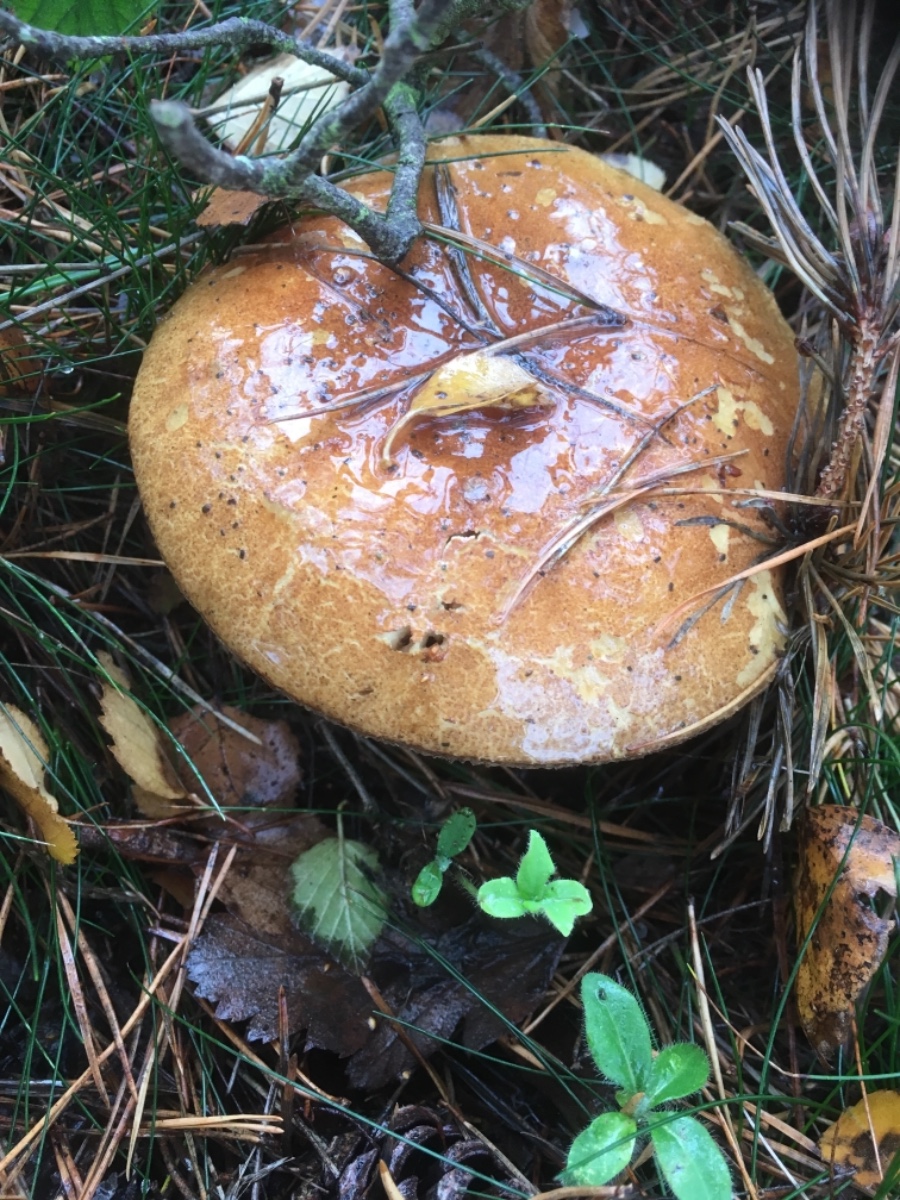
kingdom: Fungi
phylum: Basidiomycota
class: Agaricomycetes
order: Boletales
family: Boletaceae
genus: Imleria
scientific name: Imleria badia
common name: brunstokket rørhat
